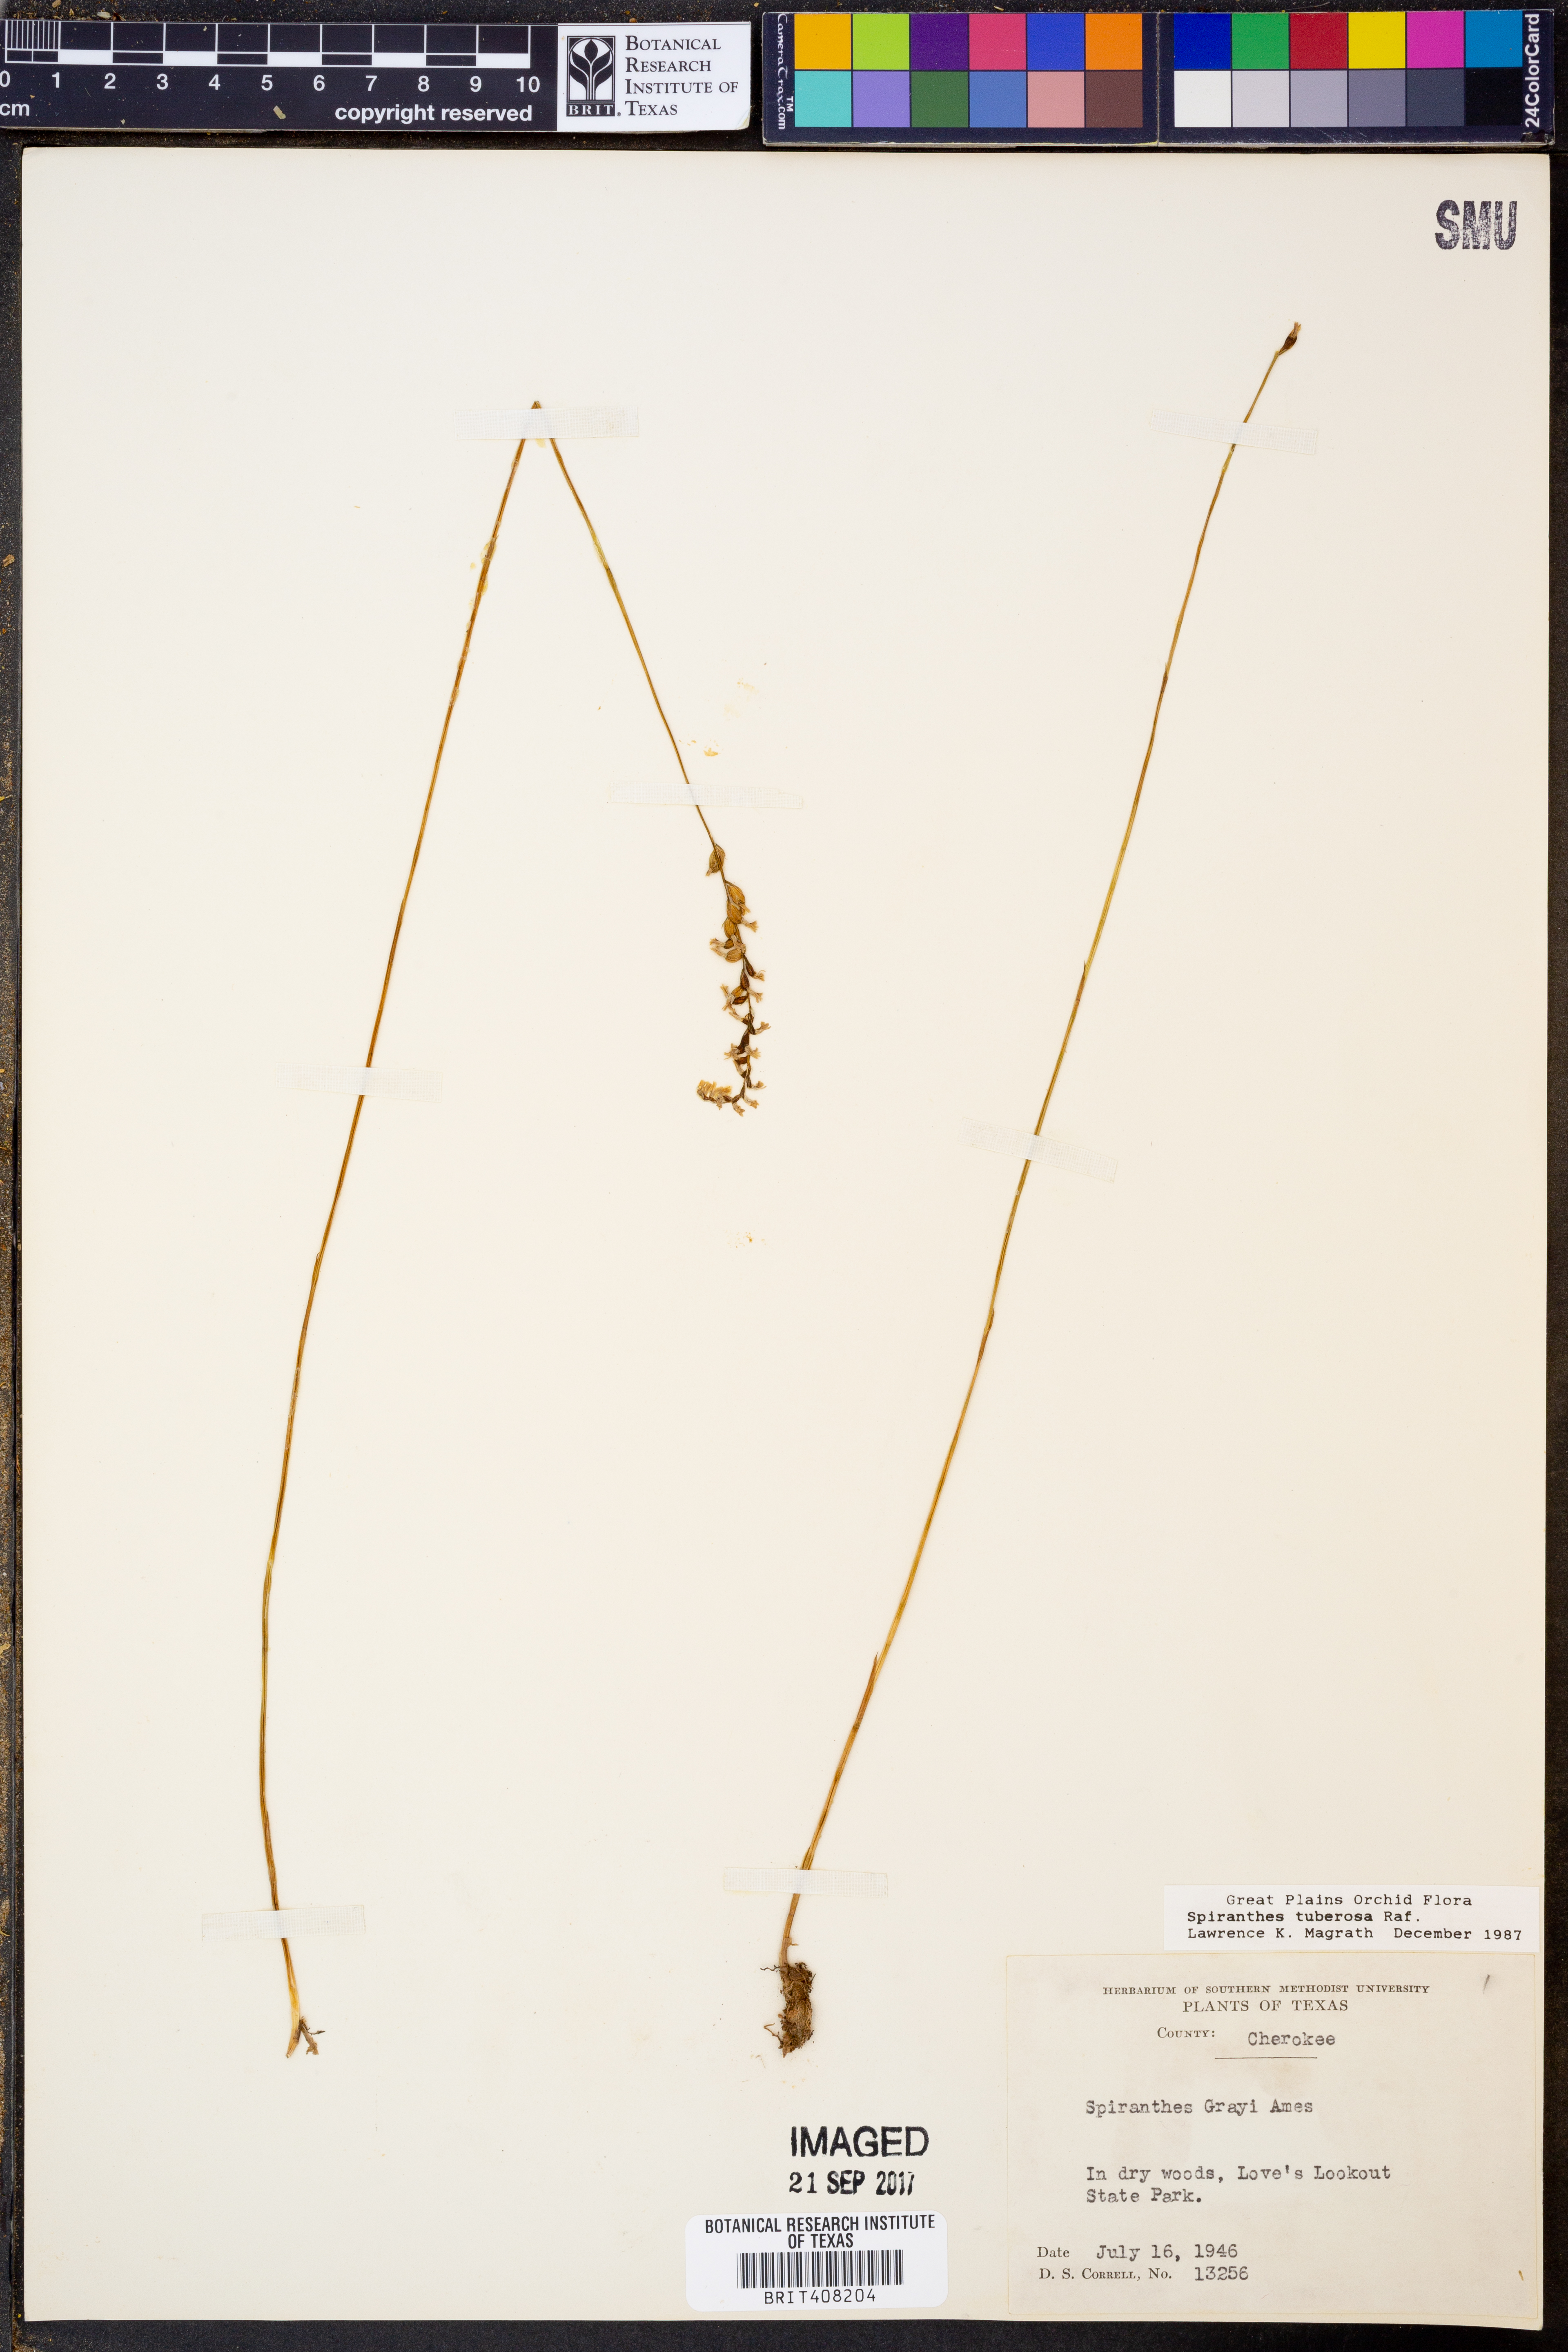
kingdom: Plantae
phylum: Tracheophyta
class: Liliopsida
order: Asparagales
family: Orchidaceae
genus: Spiranthes
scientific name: Spiranthes tuberosa
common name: Little ladies'-tresses
